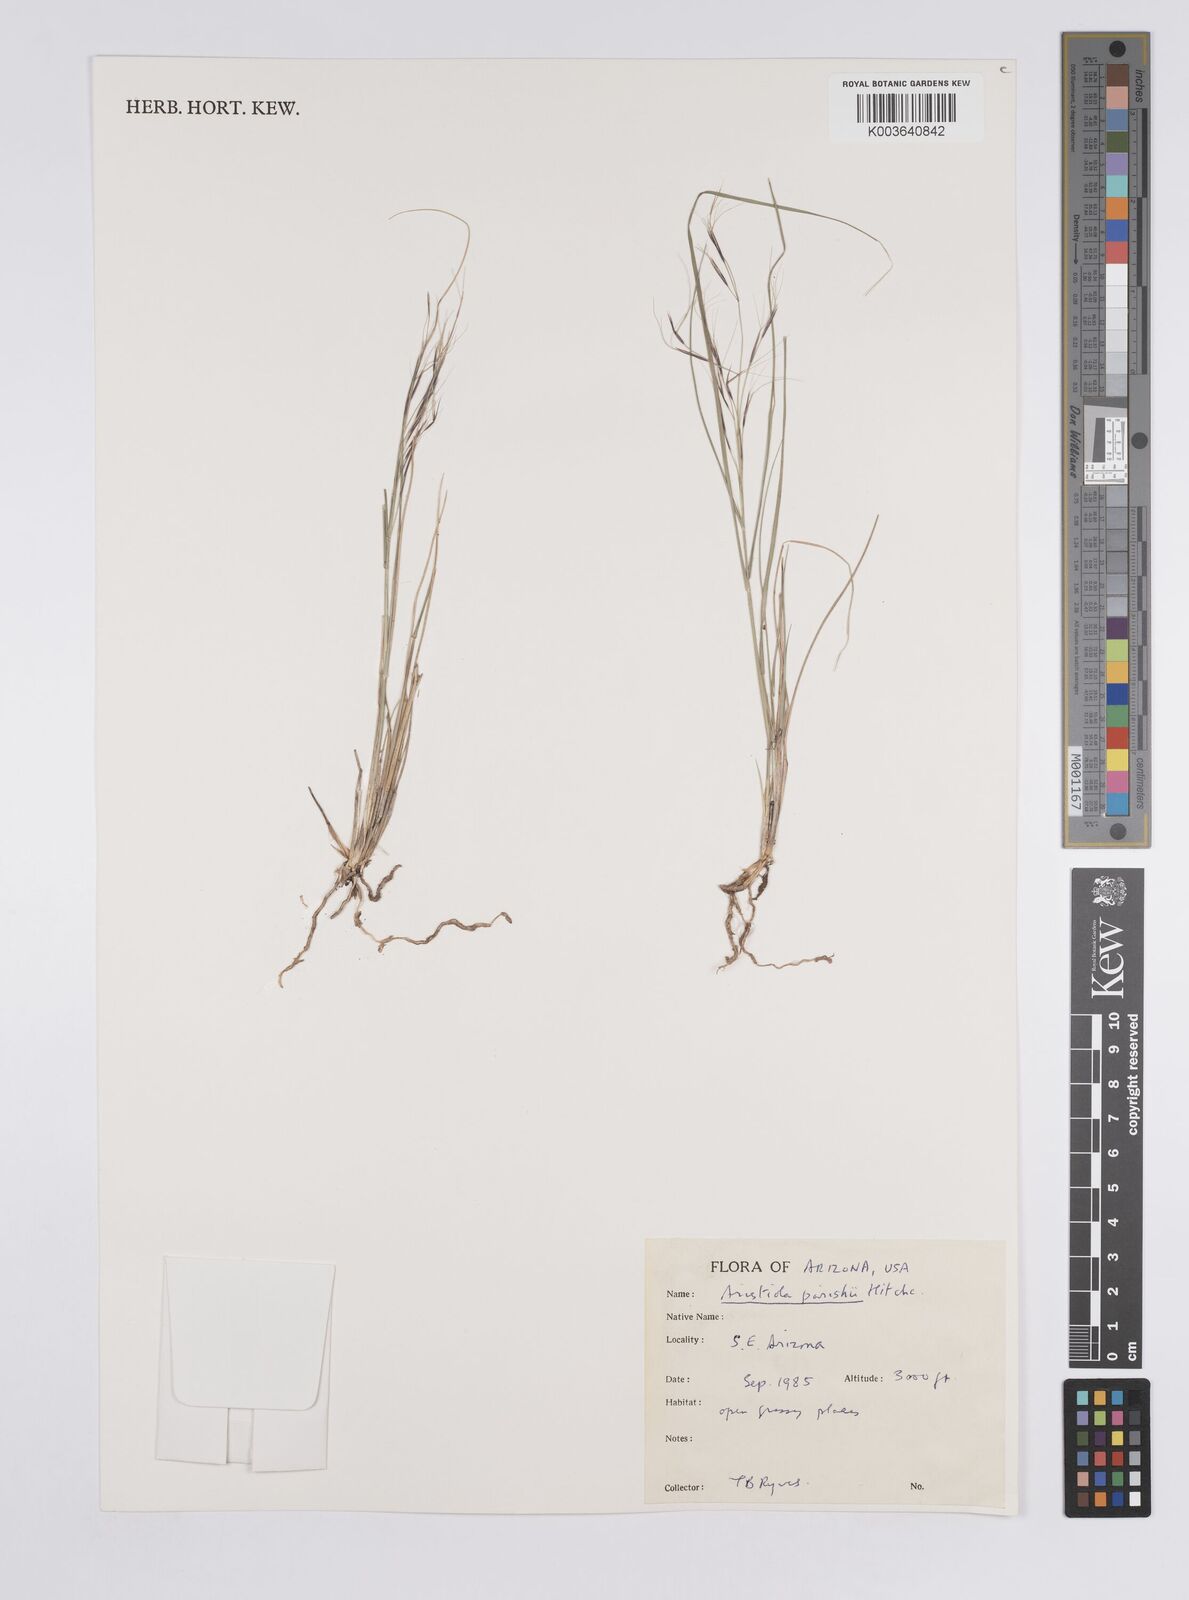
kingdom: Plantae
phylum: Tracheophyta
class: Liliopsida
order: Poales
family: Poaceae
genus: Aristida
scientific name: Aristida purpurea
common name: Purple threeawn
